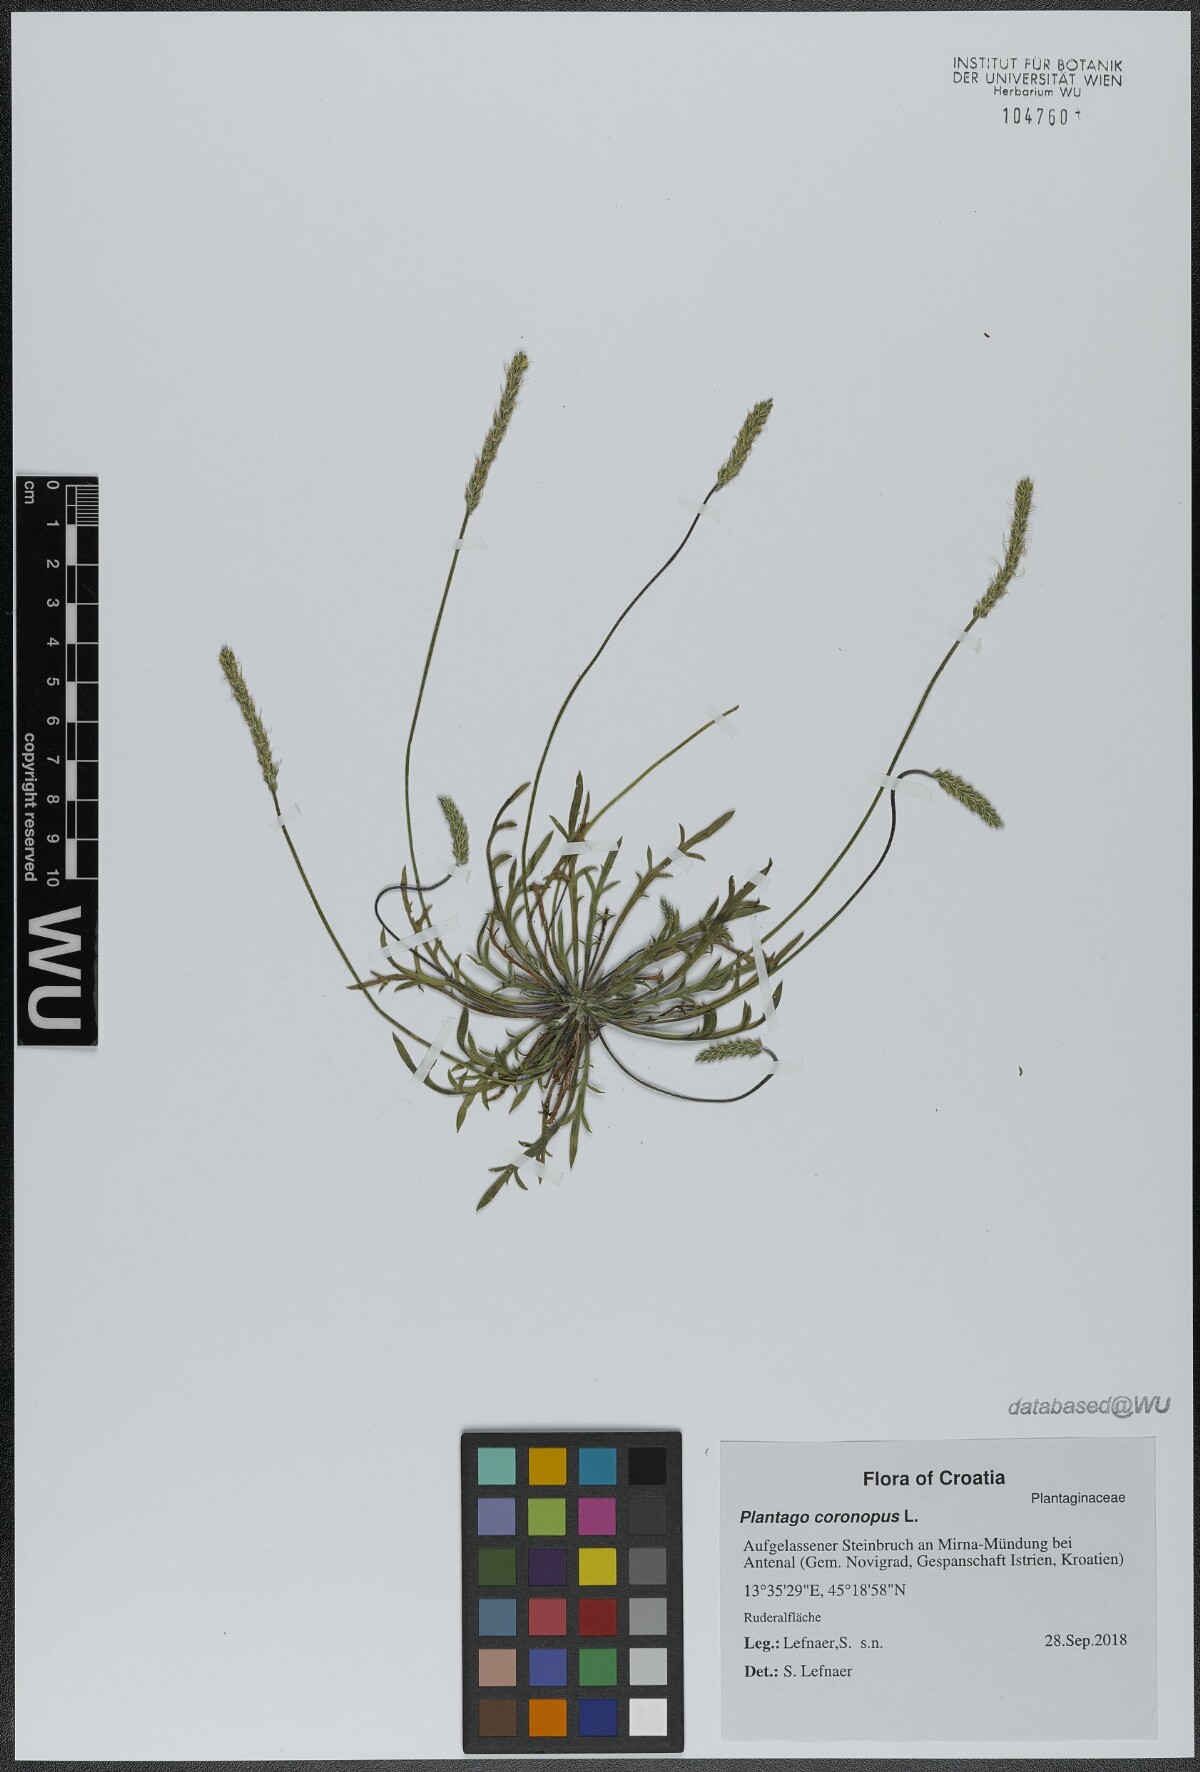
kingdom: Plantae
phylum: Tracheophyta
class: Magnoliopsida
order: Lamiales
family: Plantaginaceae
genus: Plantago
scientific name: Plantago coronopus
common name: Buck's-horn plantain
